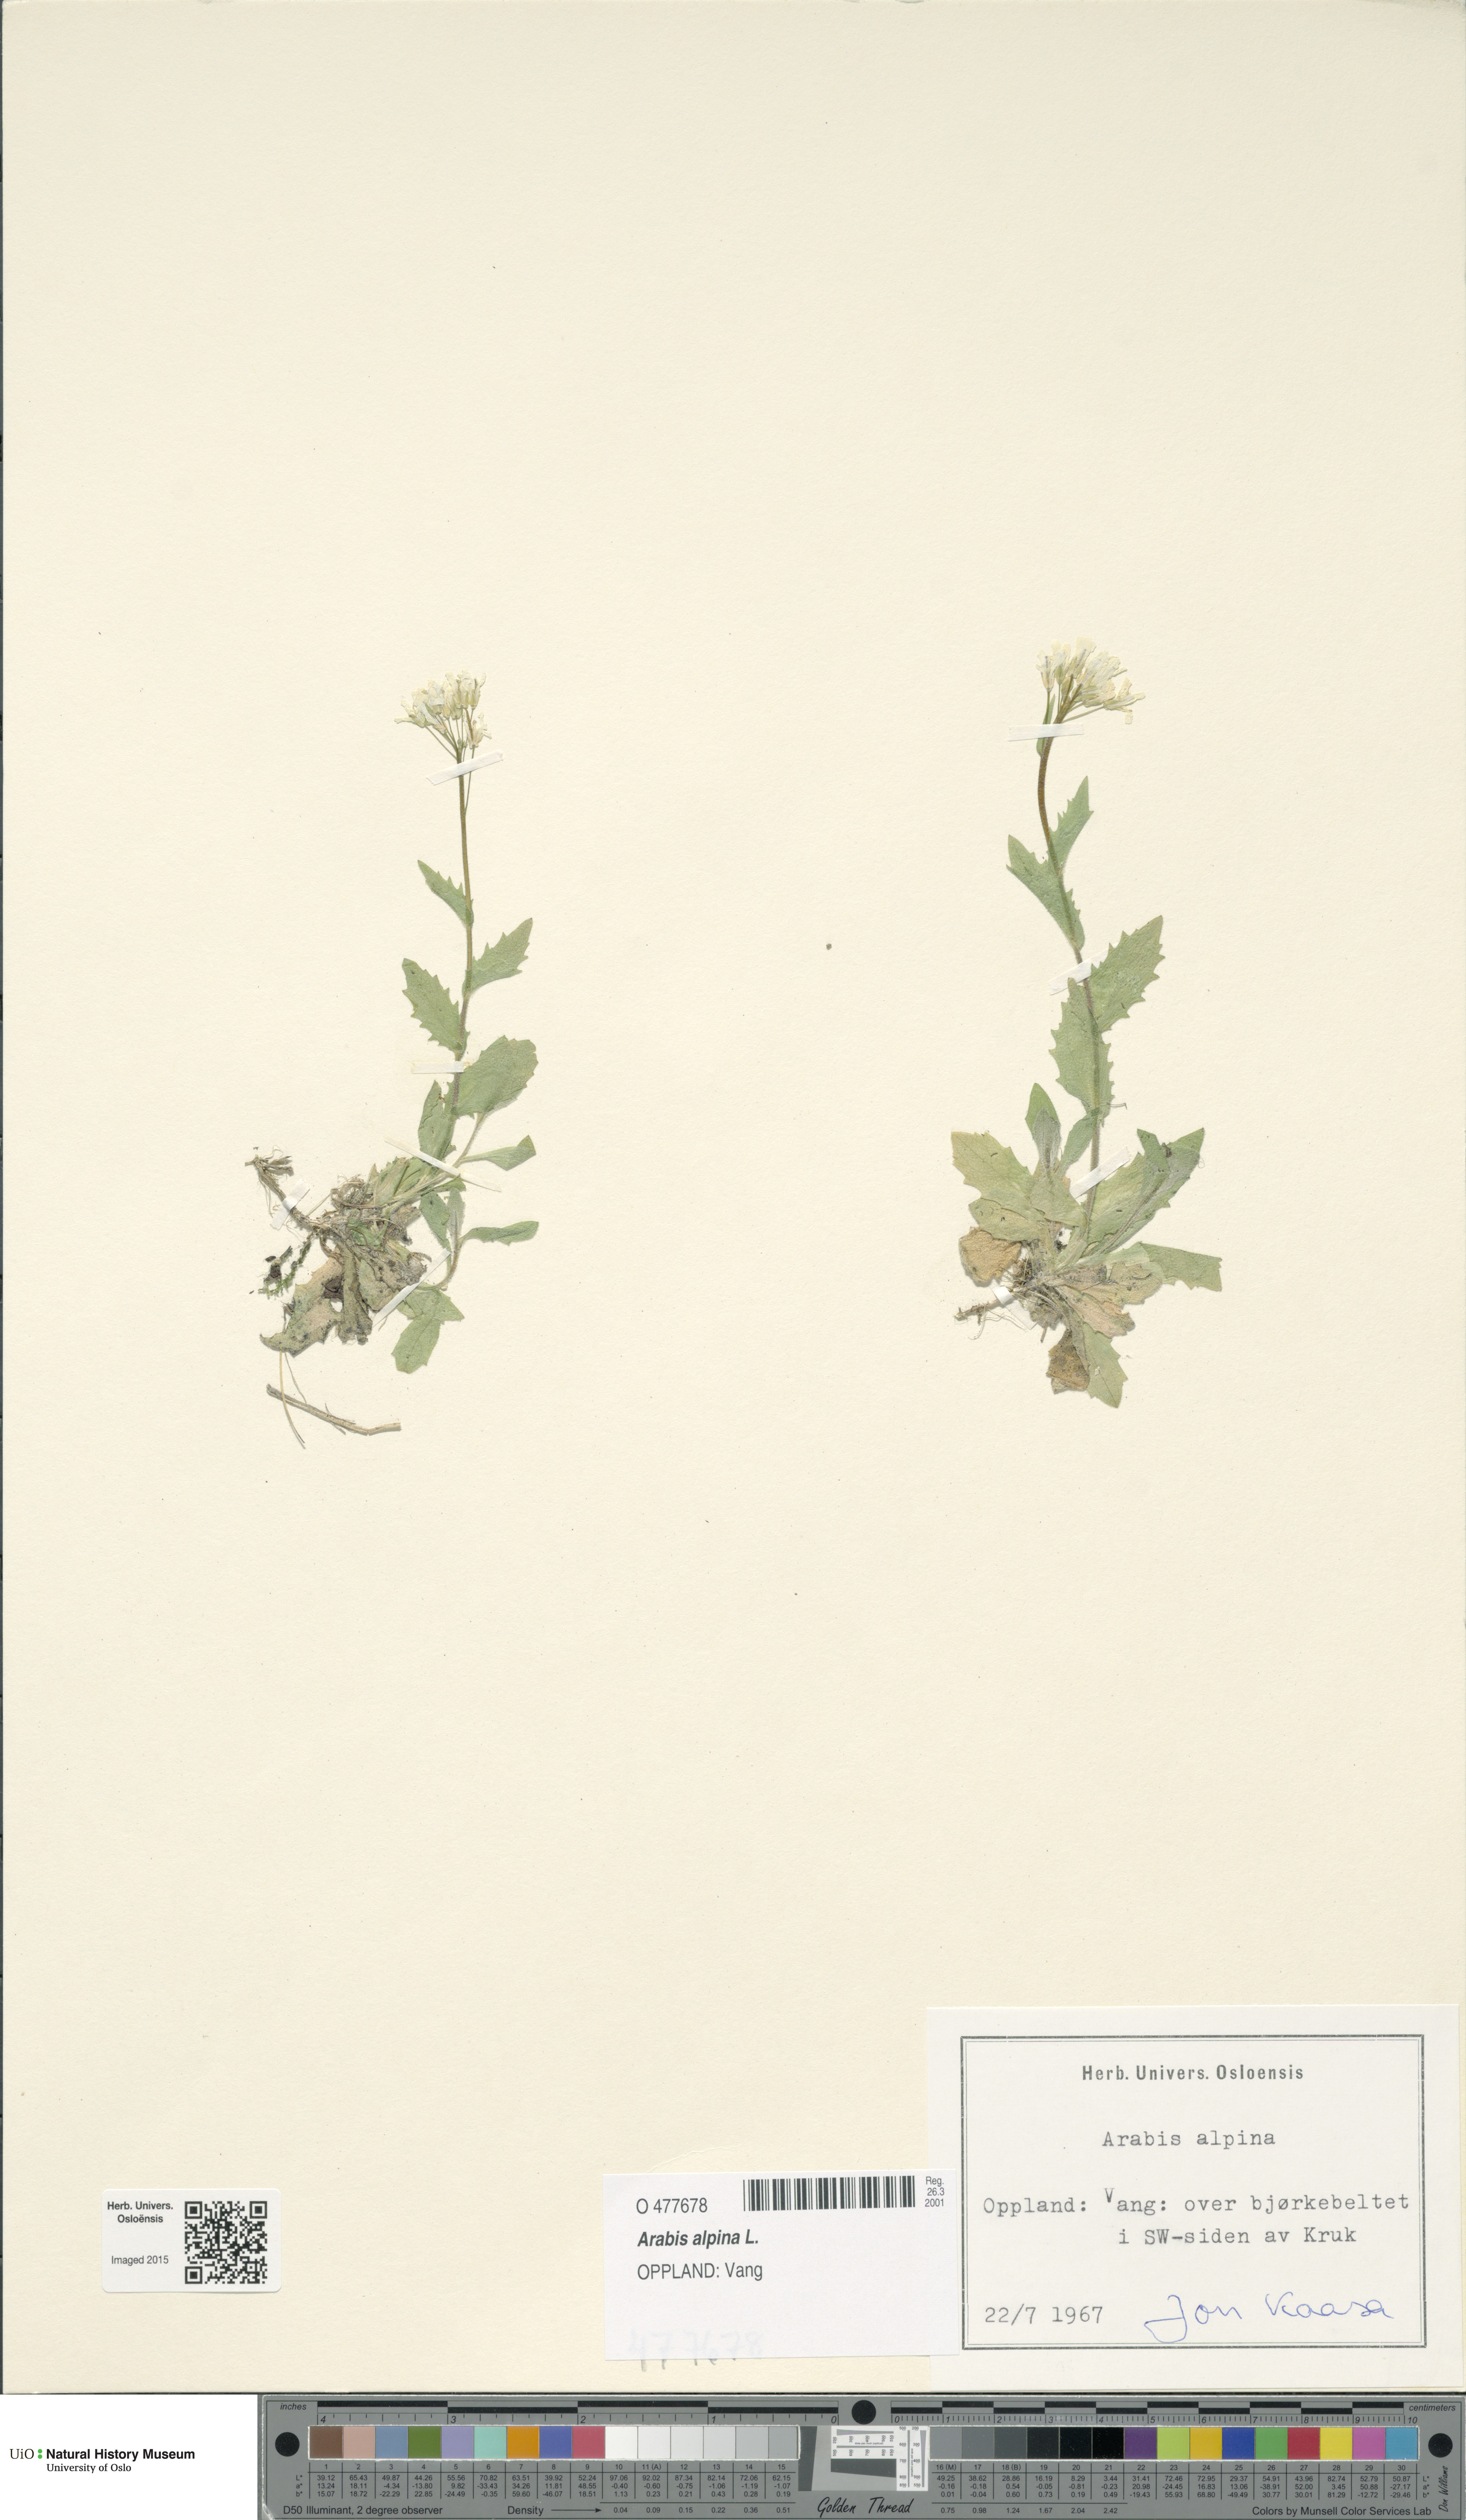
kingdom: Plantae
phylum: Tracheophyta
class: Magnoliopsida
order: Brassicales
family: Brassicaceae
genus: Arabis
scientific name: Arabis alpina
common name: Alpine rock-cress
